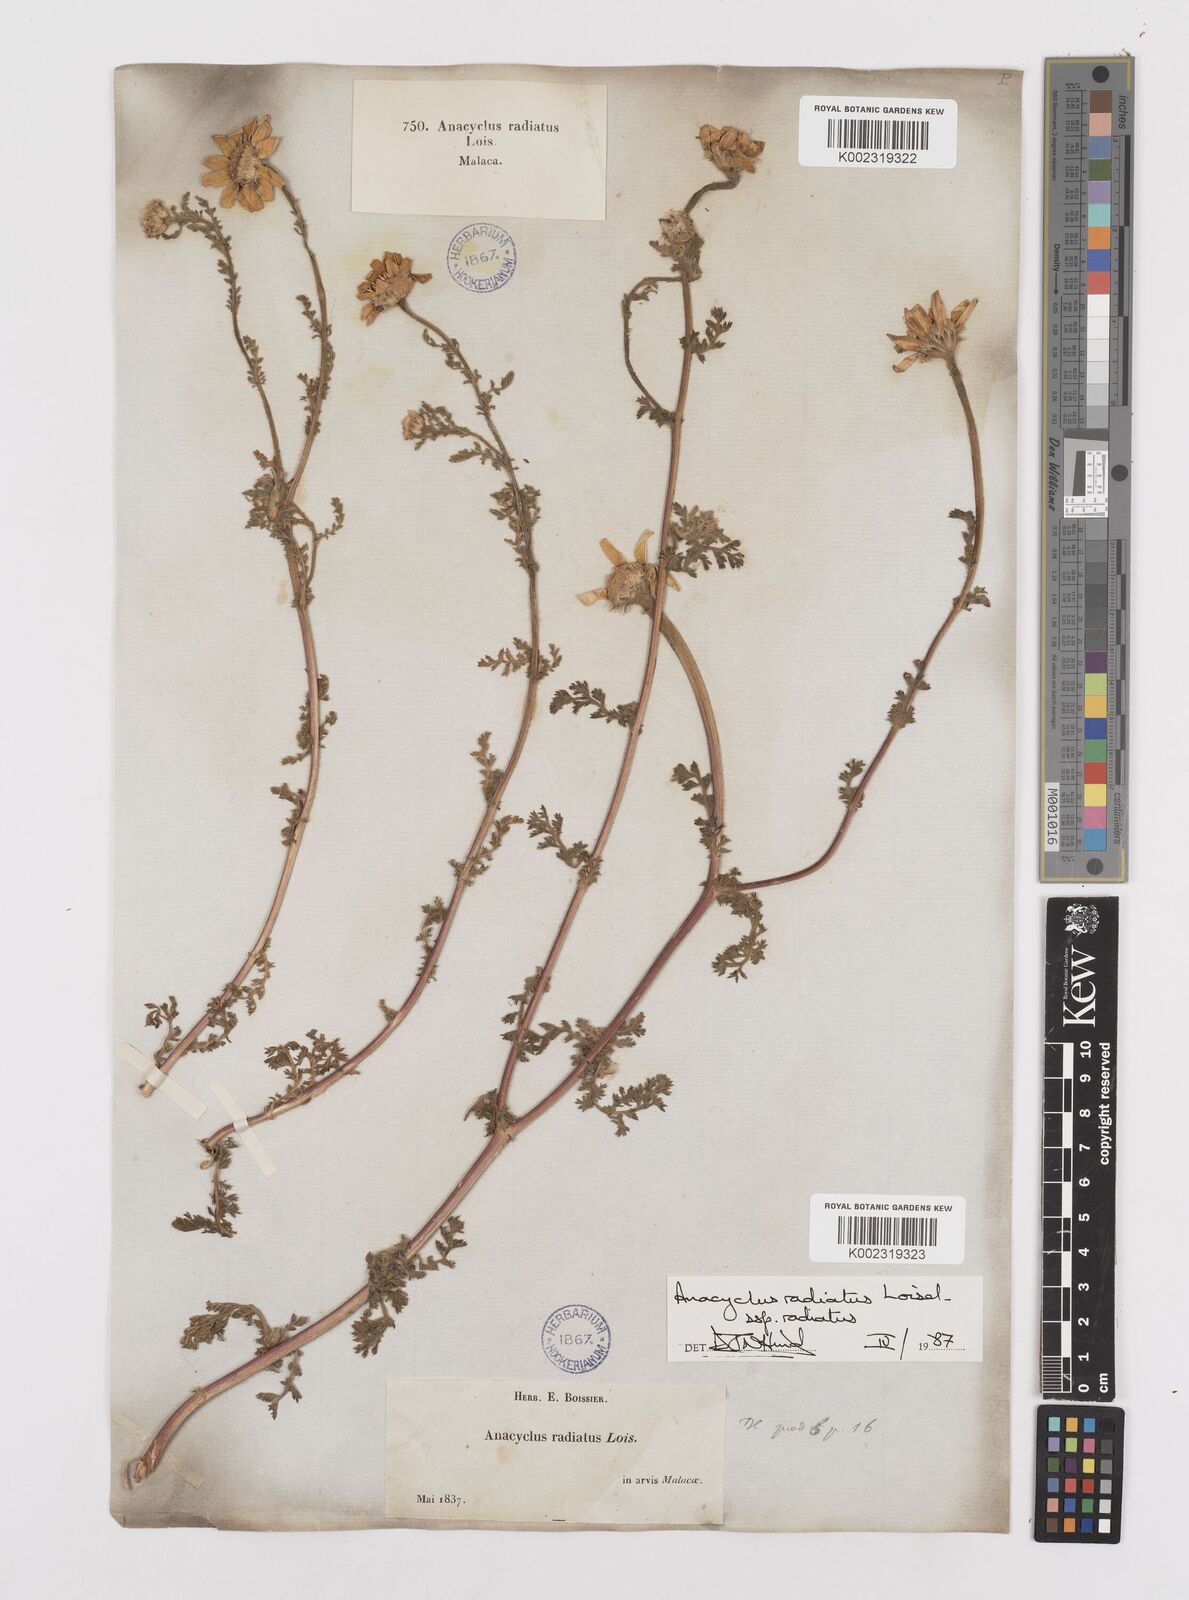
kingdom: Plantae
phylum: Tracheophyta
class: Magnoliopsida
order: Asterales
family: Asteraceae
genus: Anacyclus
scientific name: Anacyclus radiatus
